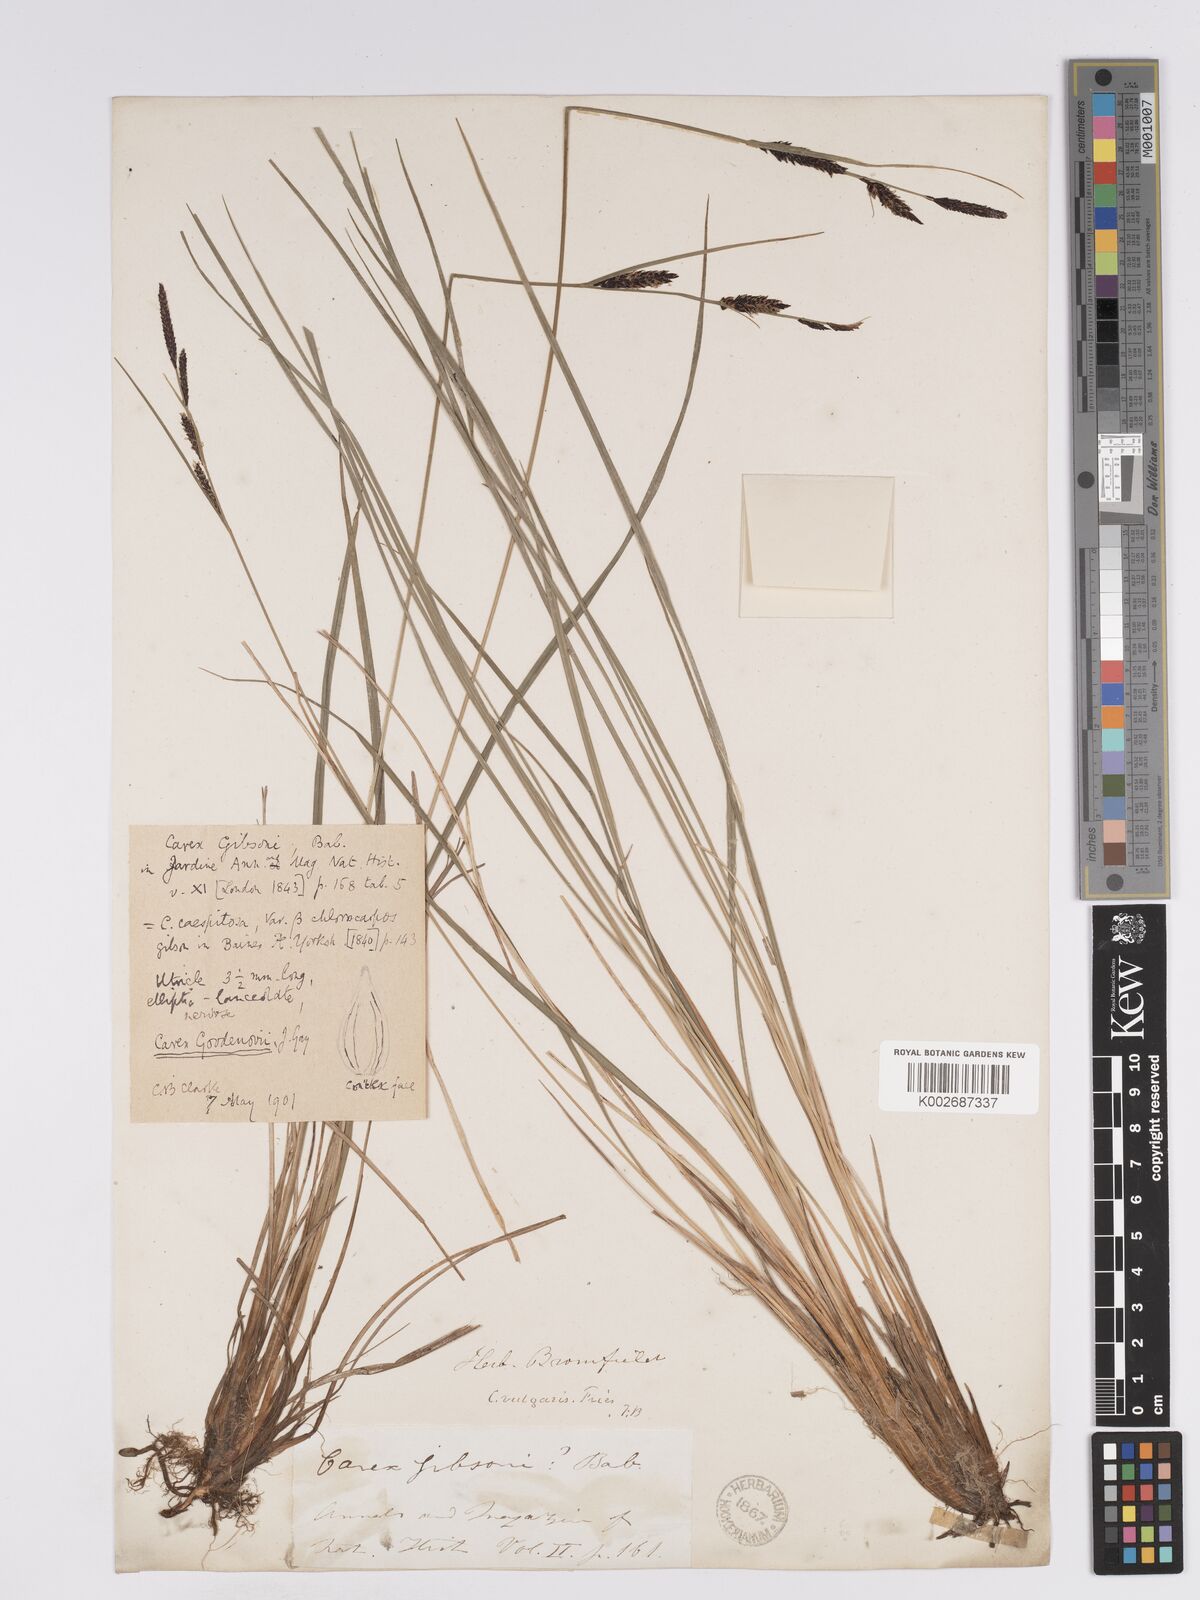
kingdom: Plantae
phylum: Tracheophyta
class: Liliopsida
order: Poales
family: Cyperaceae
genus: Carex
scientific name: Carex nigra
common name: Common sedge
